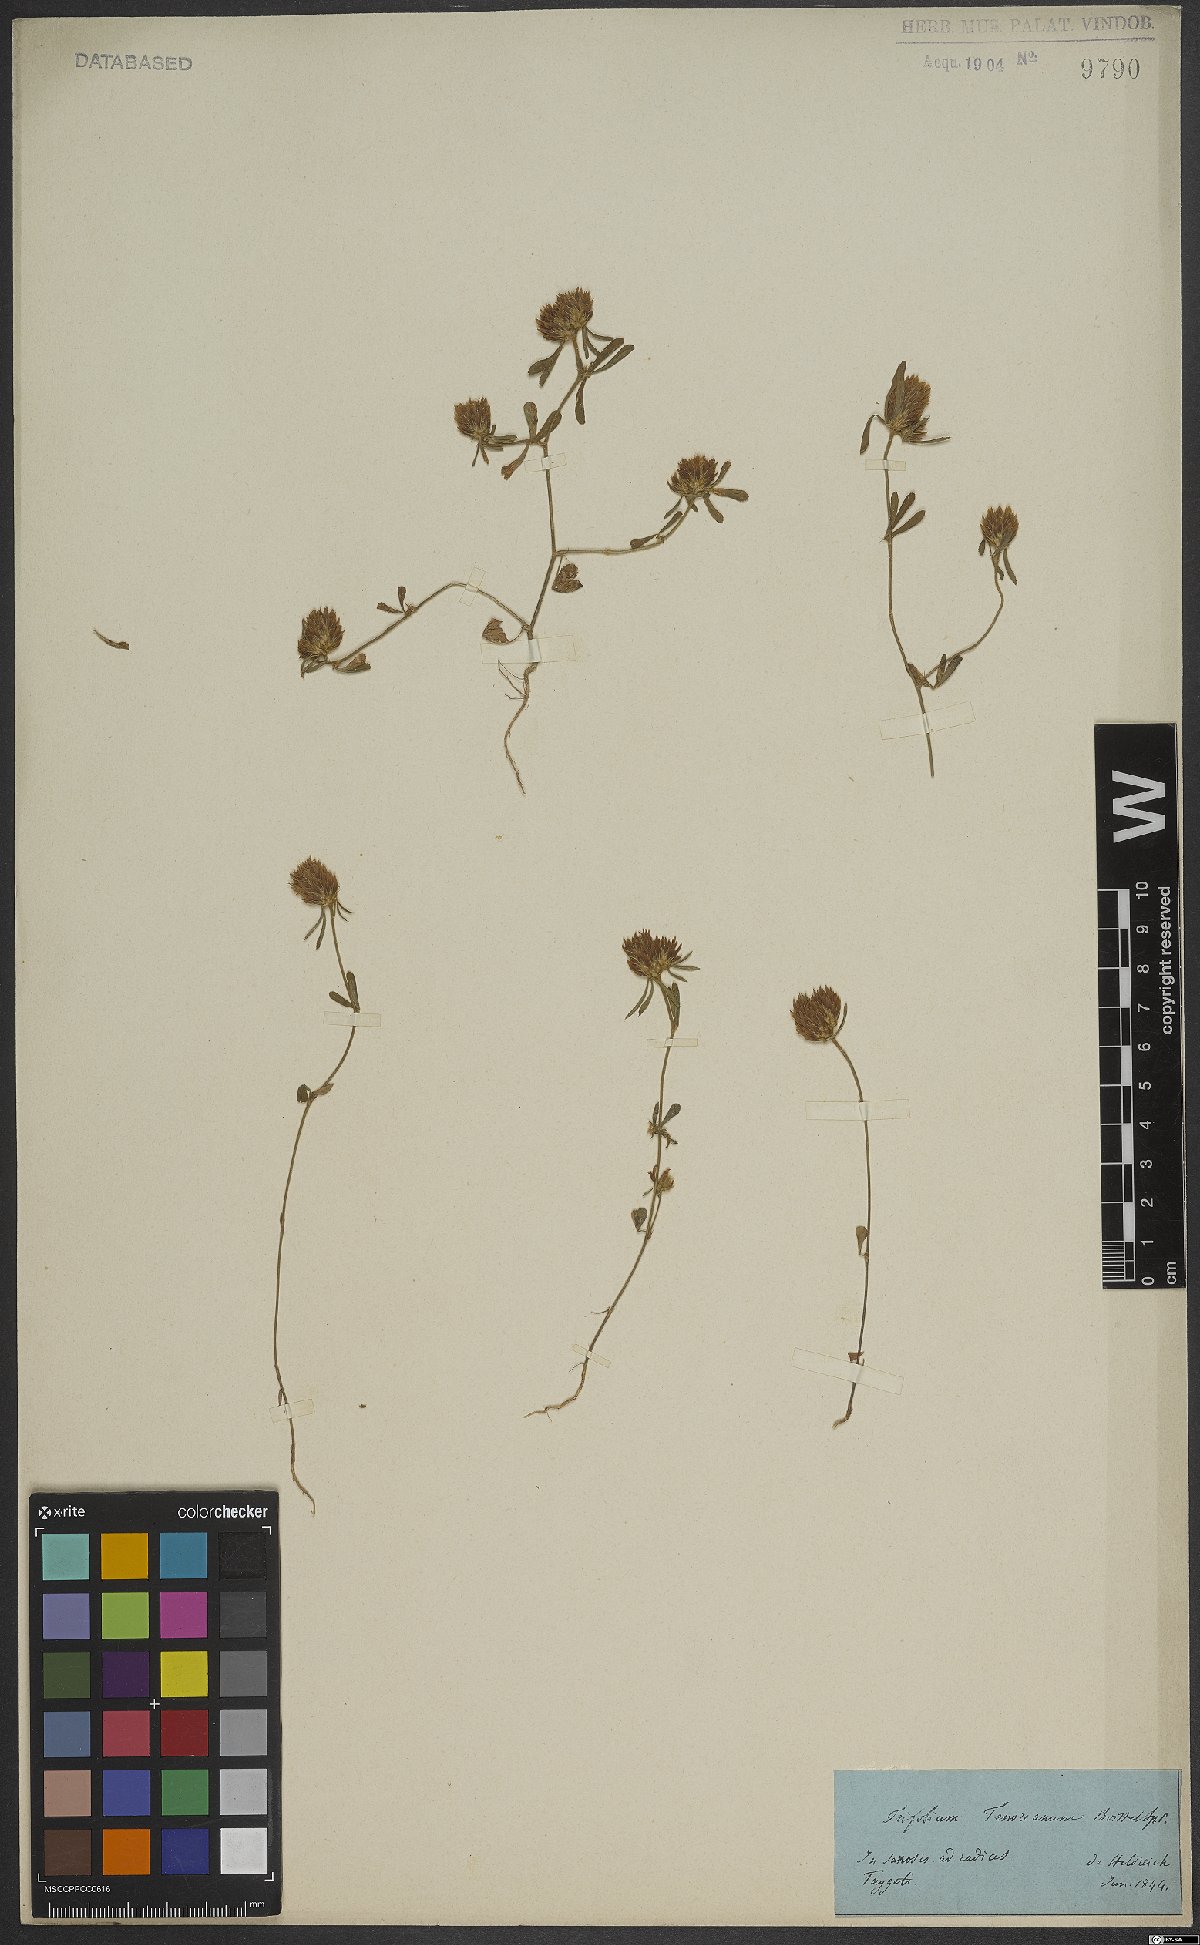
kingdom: Plantae
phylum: Tracheophyta
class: Magnoliopsida
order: Fabales
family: Fabaceae
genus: Trifolium
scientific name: Trifolium tenuifolium
